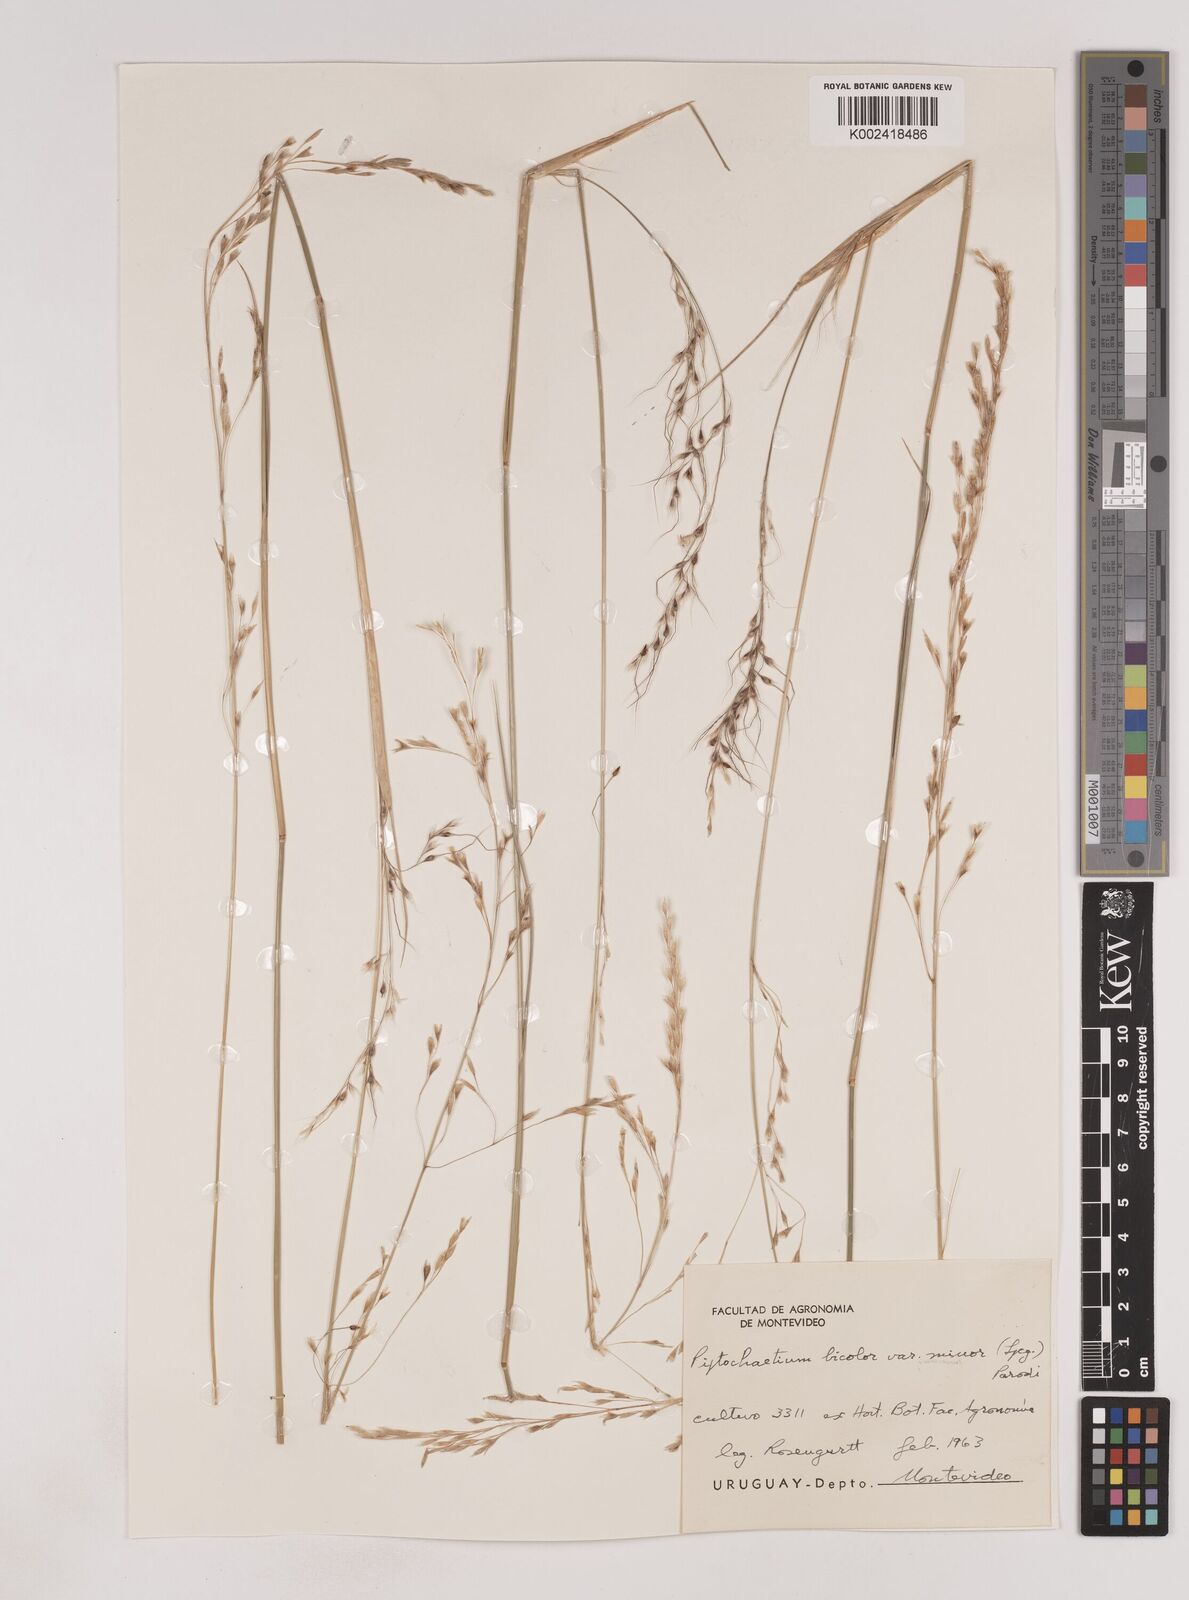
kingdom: Plantae
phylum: Tracheophyta
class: Liliopsida
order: Poales
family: Poaceae
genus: Piptochaetium
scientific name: Piptochaetium bicolor
